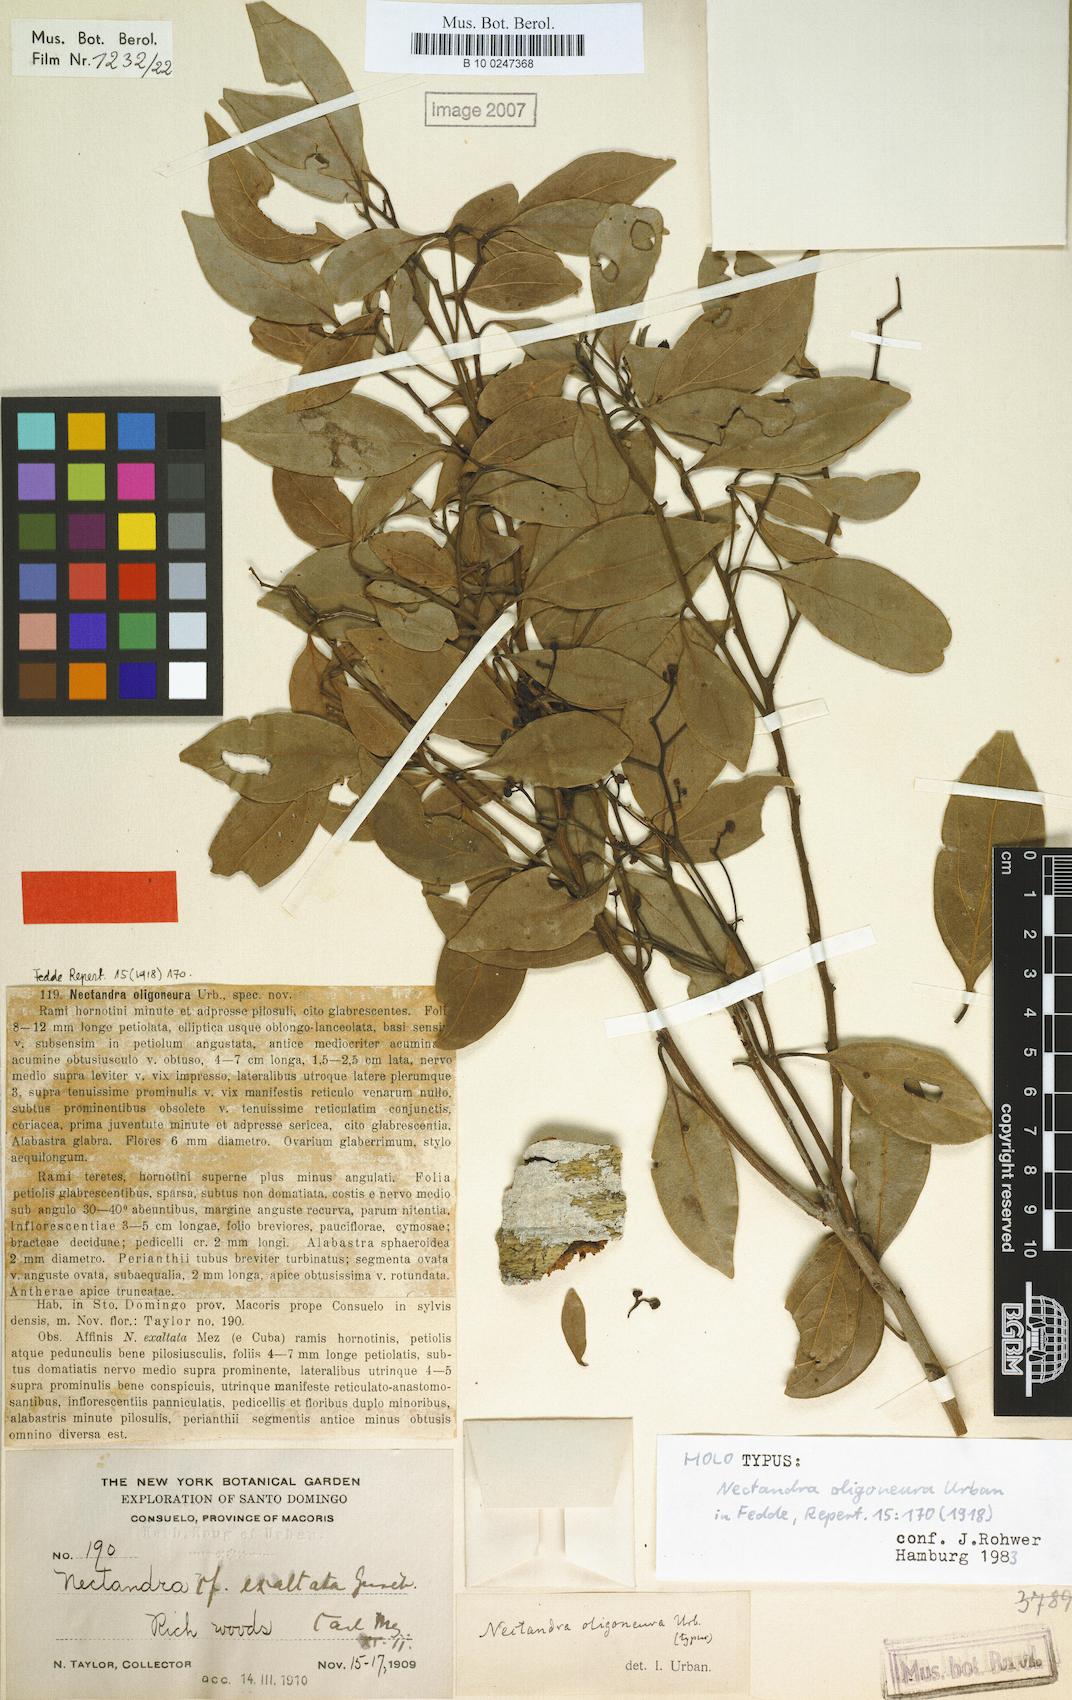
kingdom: Plantae
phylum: Tracheophyta
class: Magnoliopsida
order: Laurales
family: Lauraceae
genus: Nectandra
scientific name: Nectandra turbacensis
